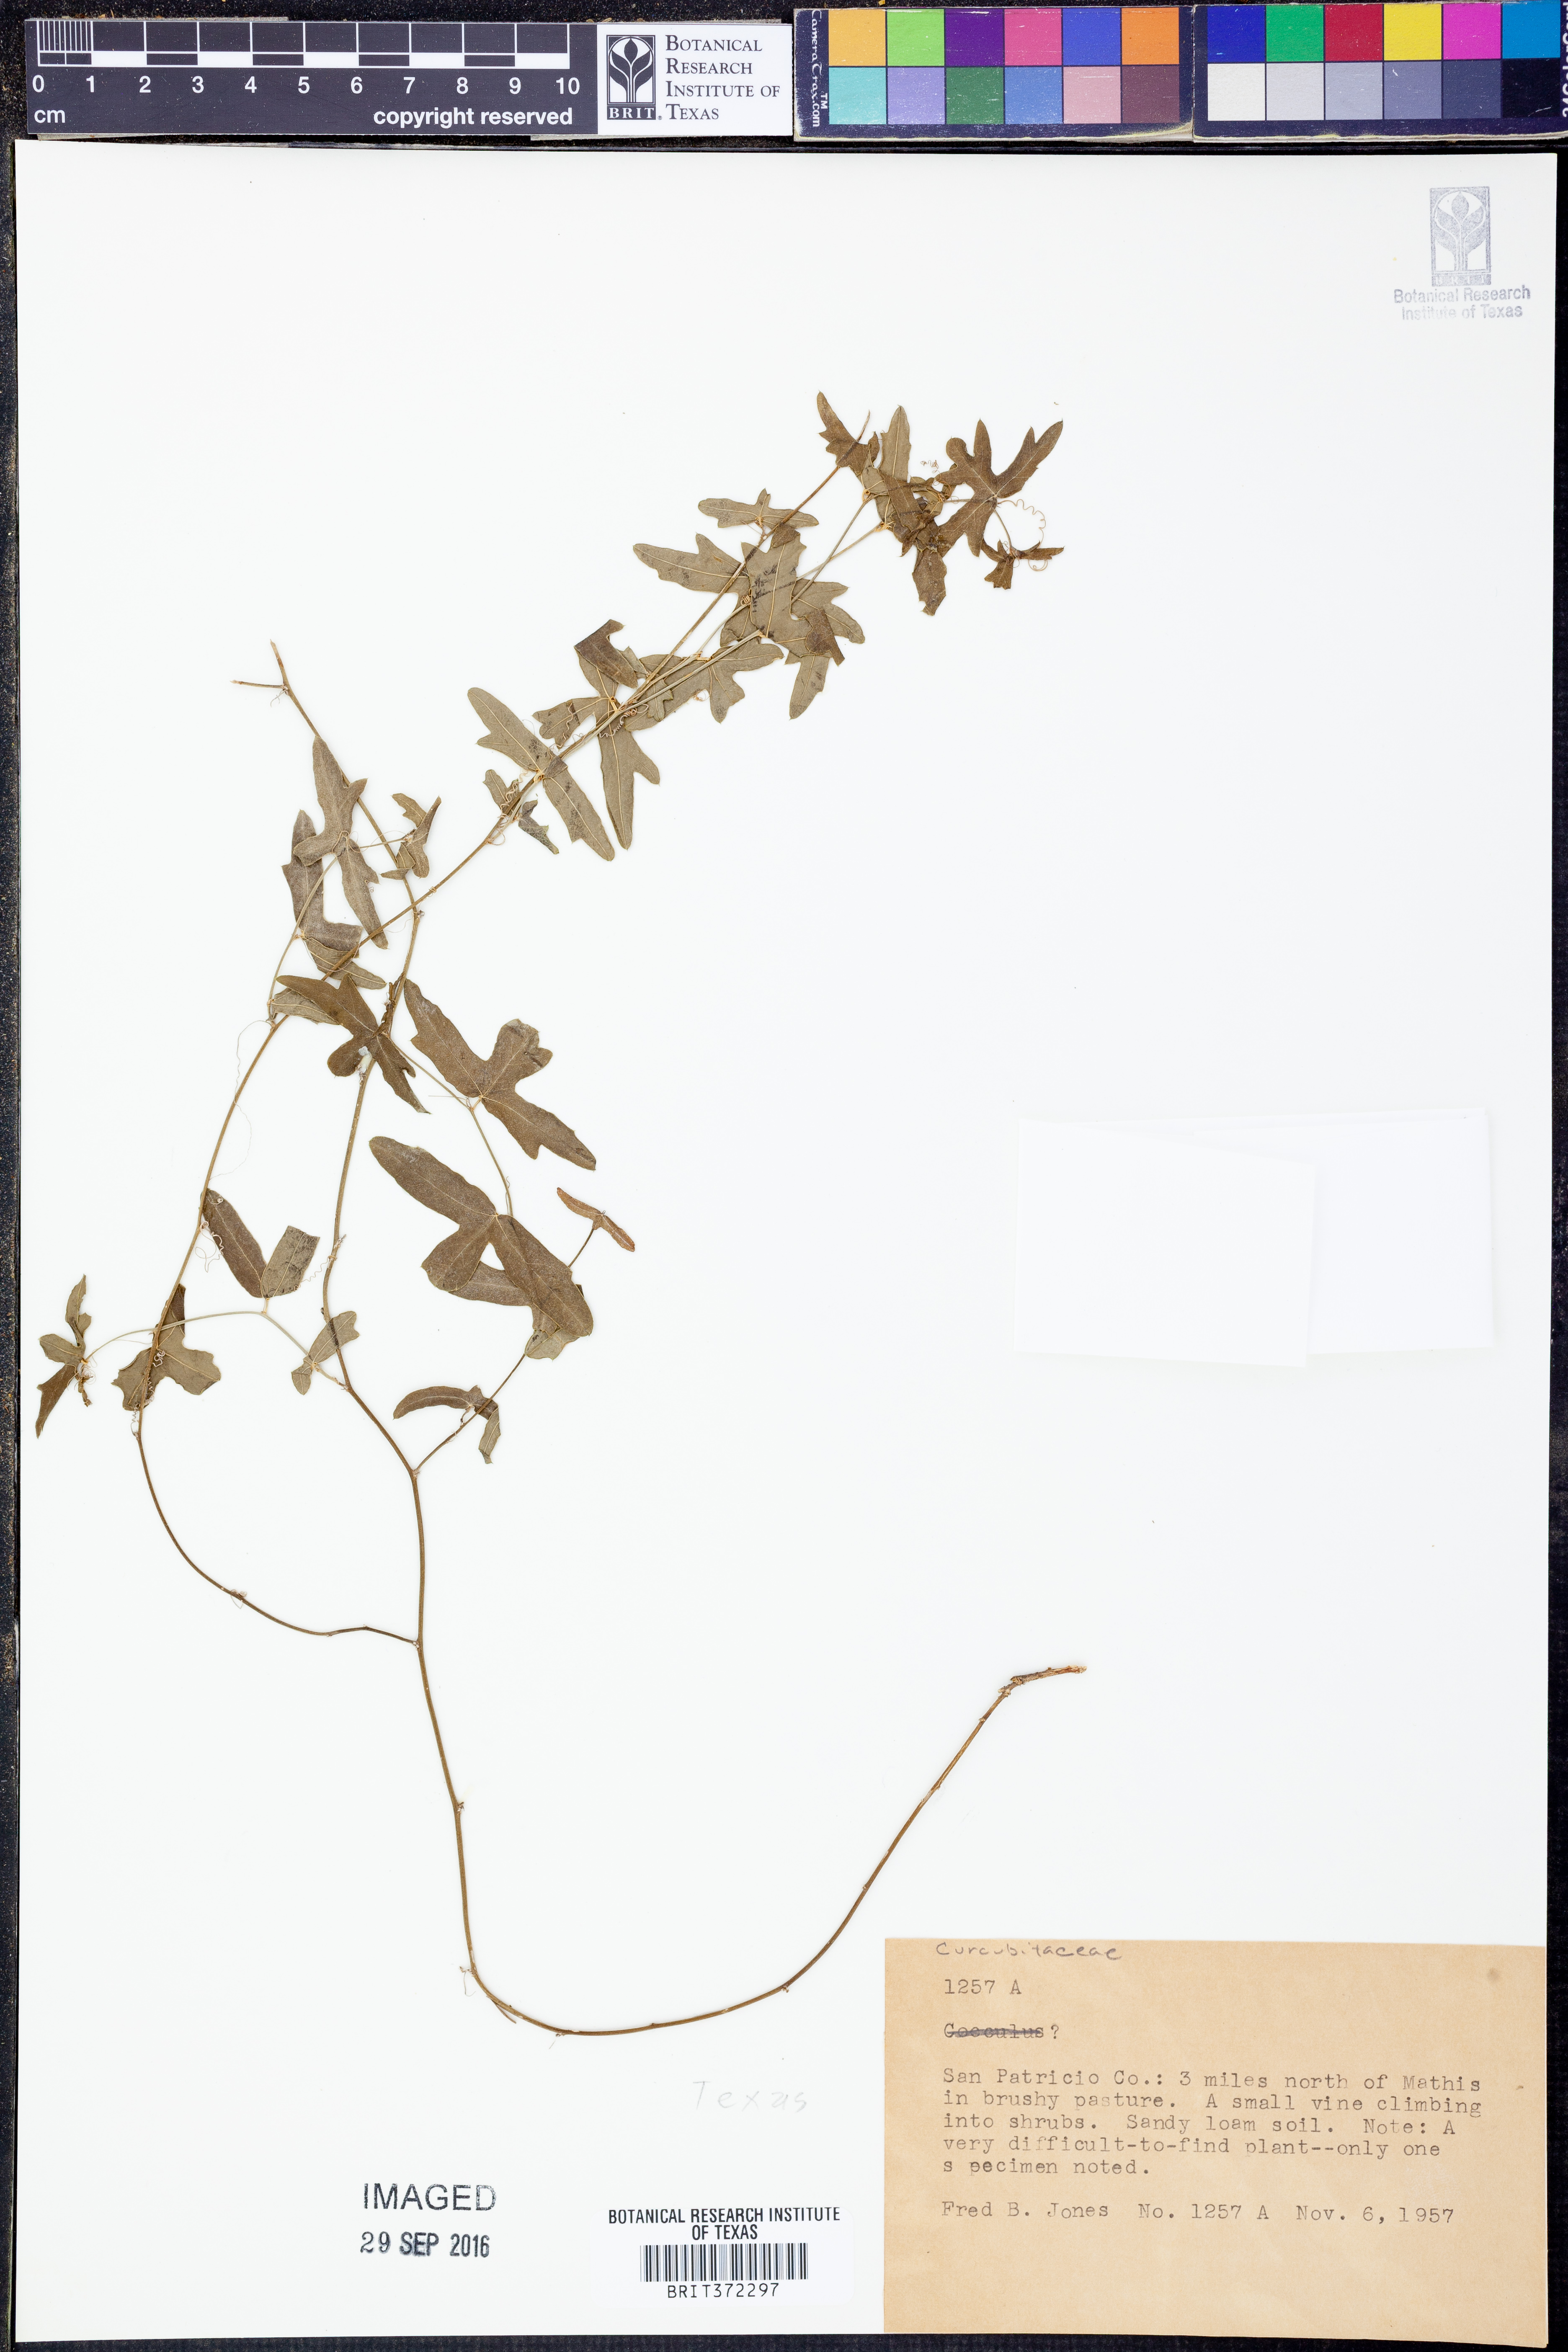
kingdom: Plantae
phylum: Tracheophyta
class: Magnoliopsida
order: Cucurbitales
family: Cucurbitaceae
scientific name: Cucurbitaceae
